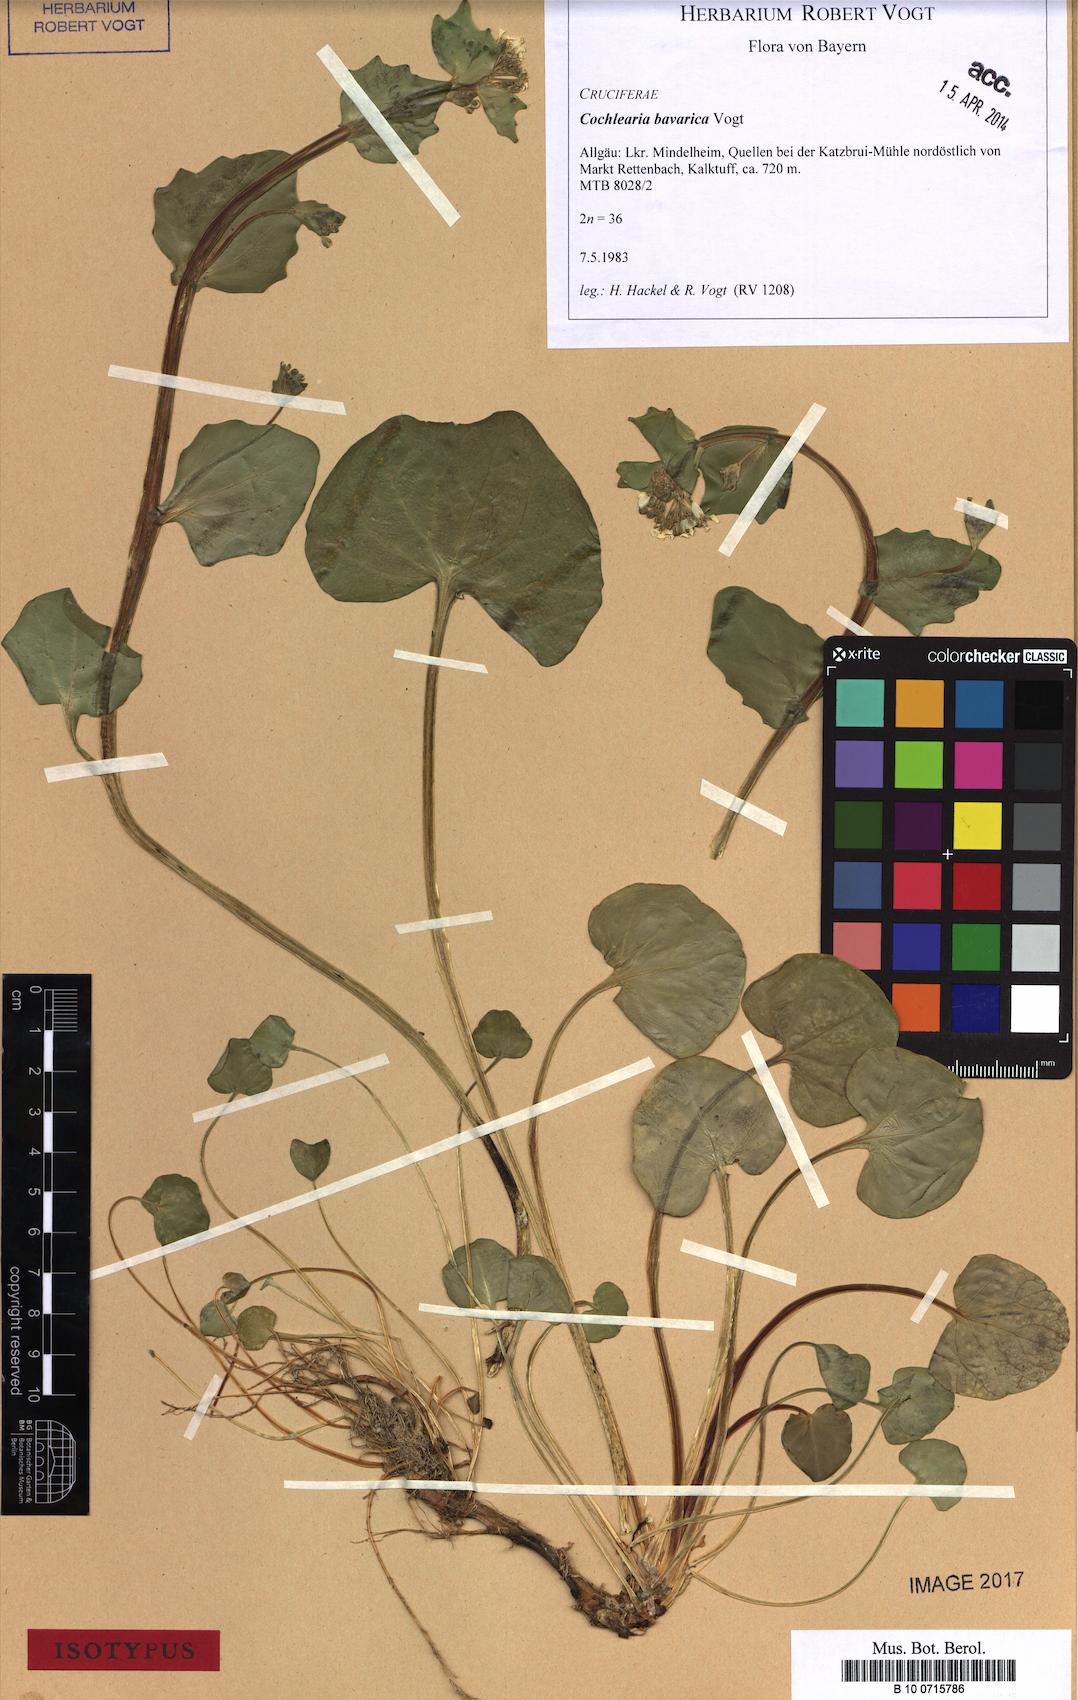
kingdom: Plantae
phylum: Tracheophyta
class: Magnoliopsida
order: Brassicales
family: Brassicaceae
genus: Cochlearia
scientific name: Cochlearia bavarica
